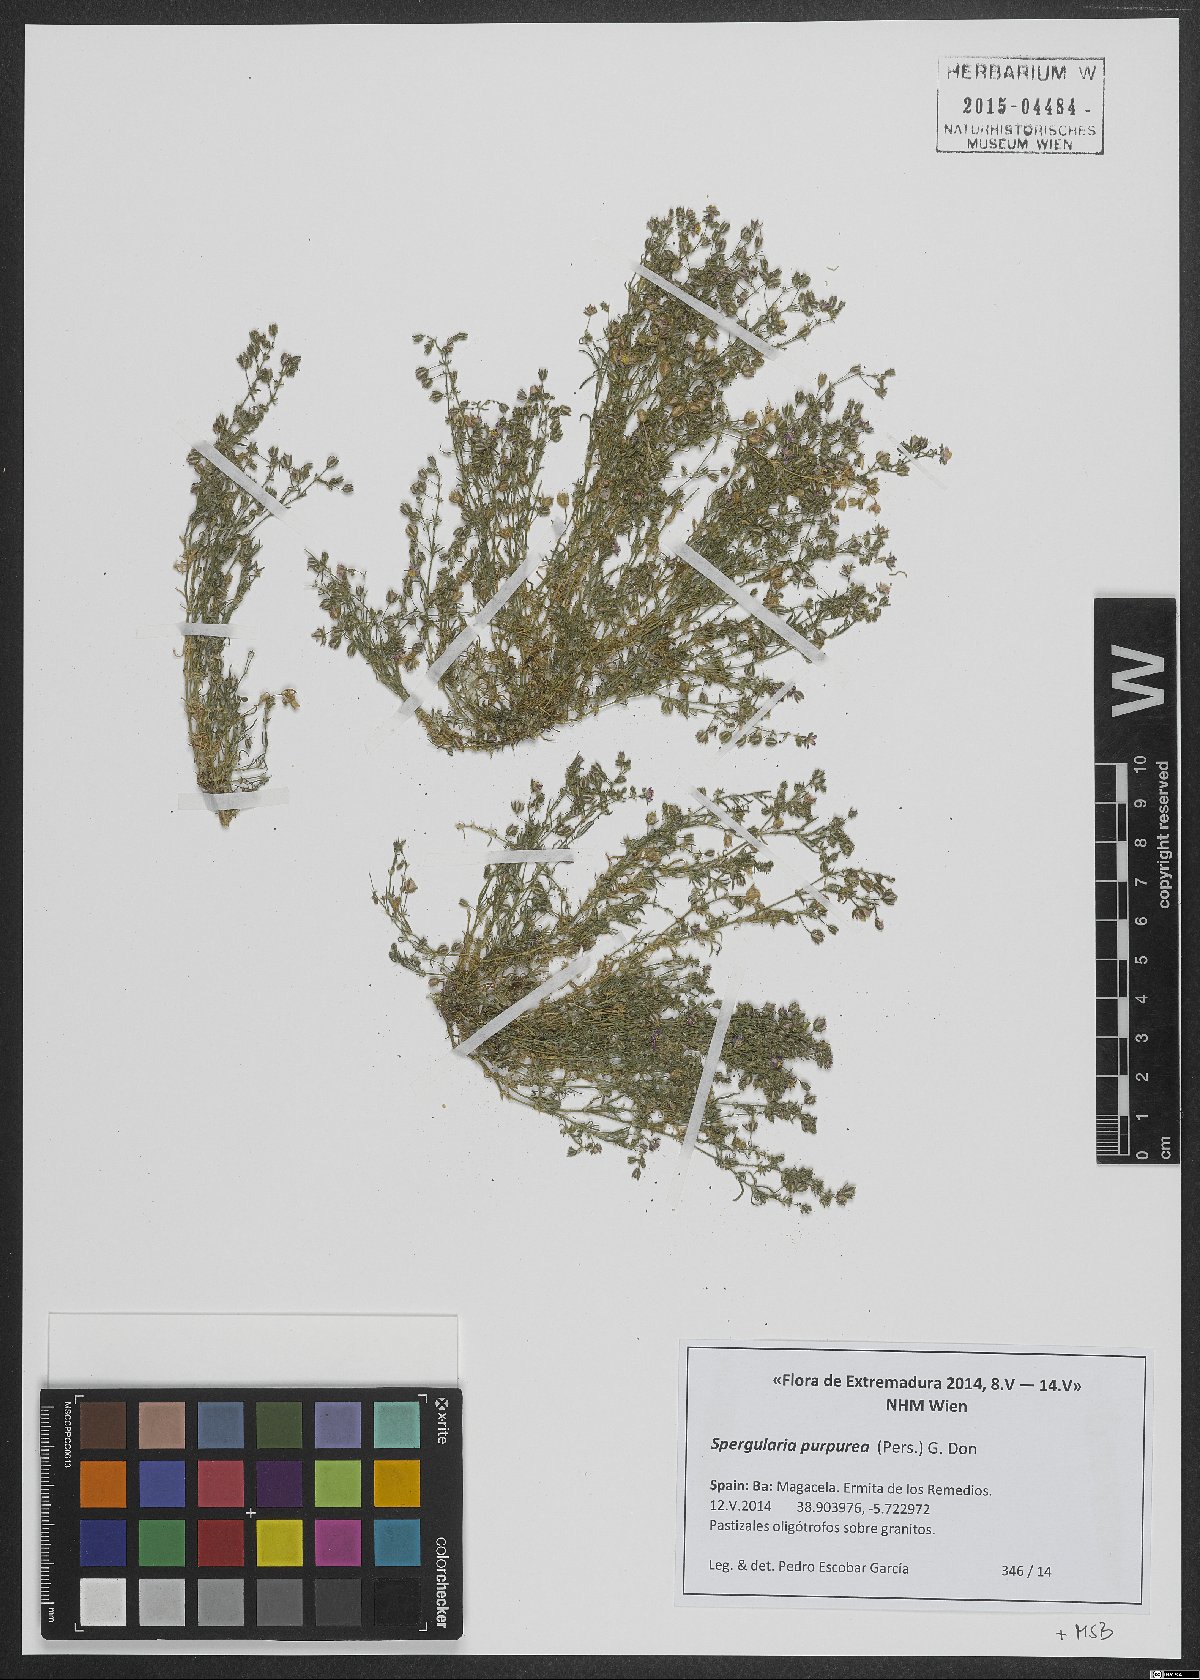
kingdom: Plantae
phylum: Tracheophyta
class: Magnoliopsida
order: Caryophyllales
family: Caryophyllaceae
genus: Spergularia
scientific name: Spergularia purpurea
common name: Purple sandspurry
